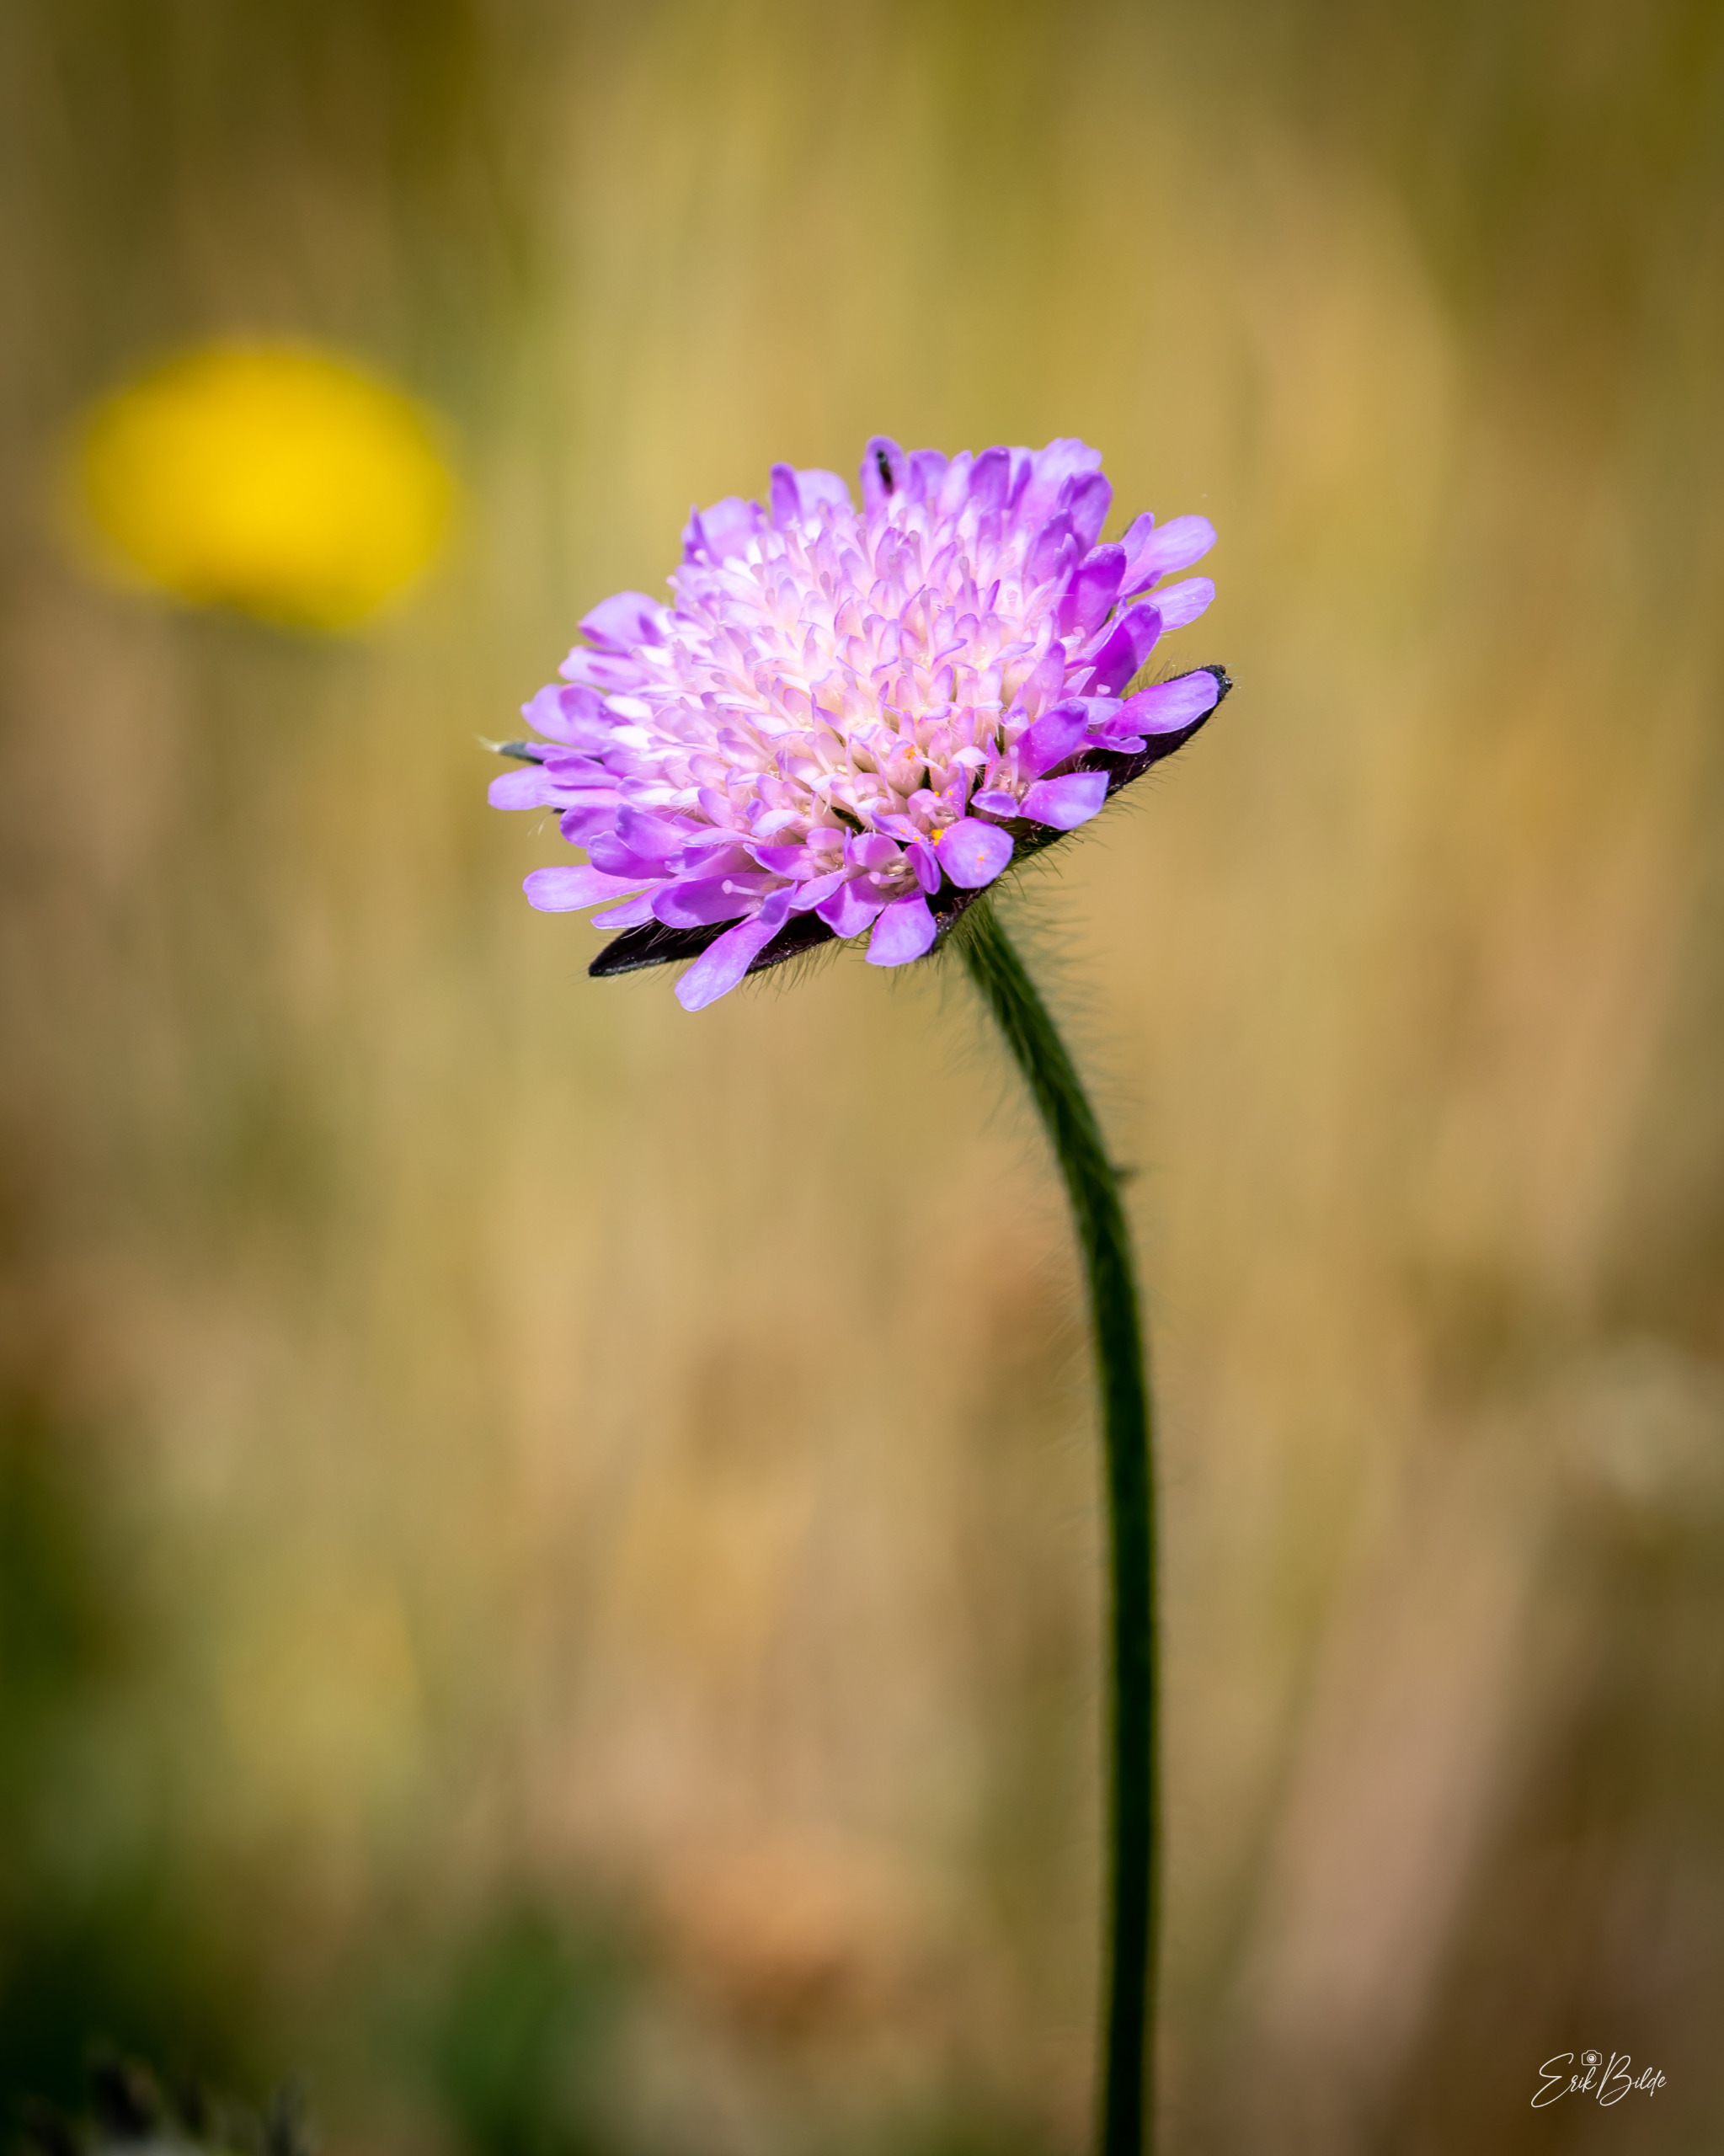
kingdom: Plantae
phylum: Tracheophyta
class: Magnoliopsida
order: Dipsacales
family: Caprifoliaceae
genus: Knautia
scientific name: Knautia arvensis
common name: Blåhat
